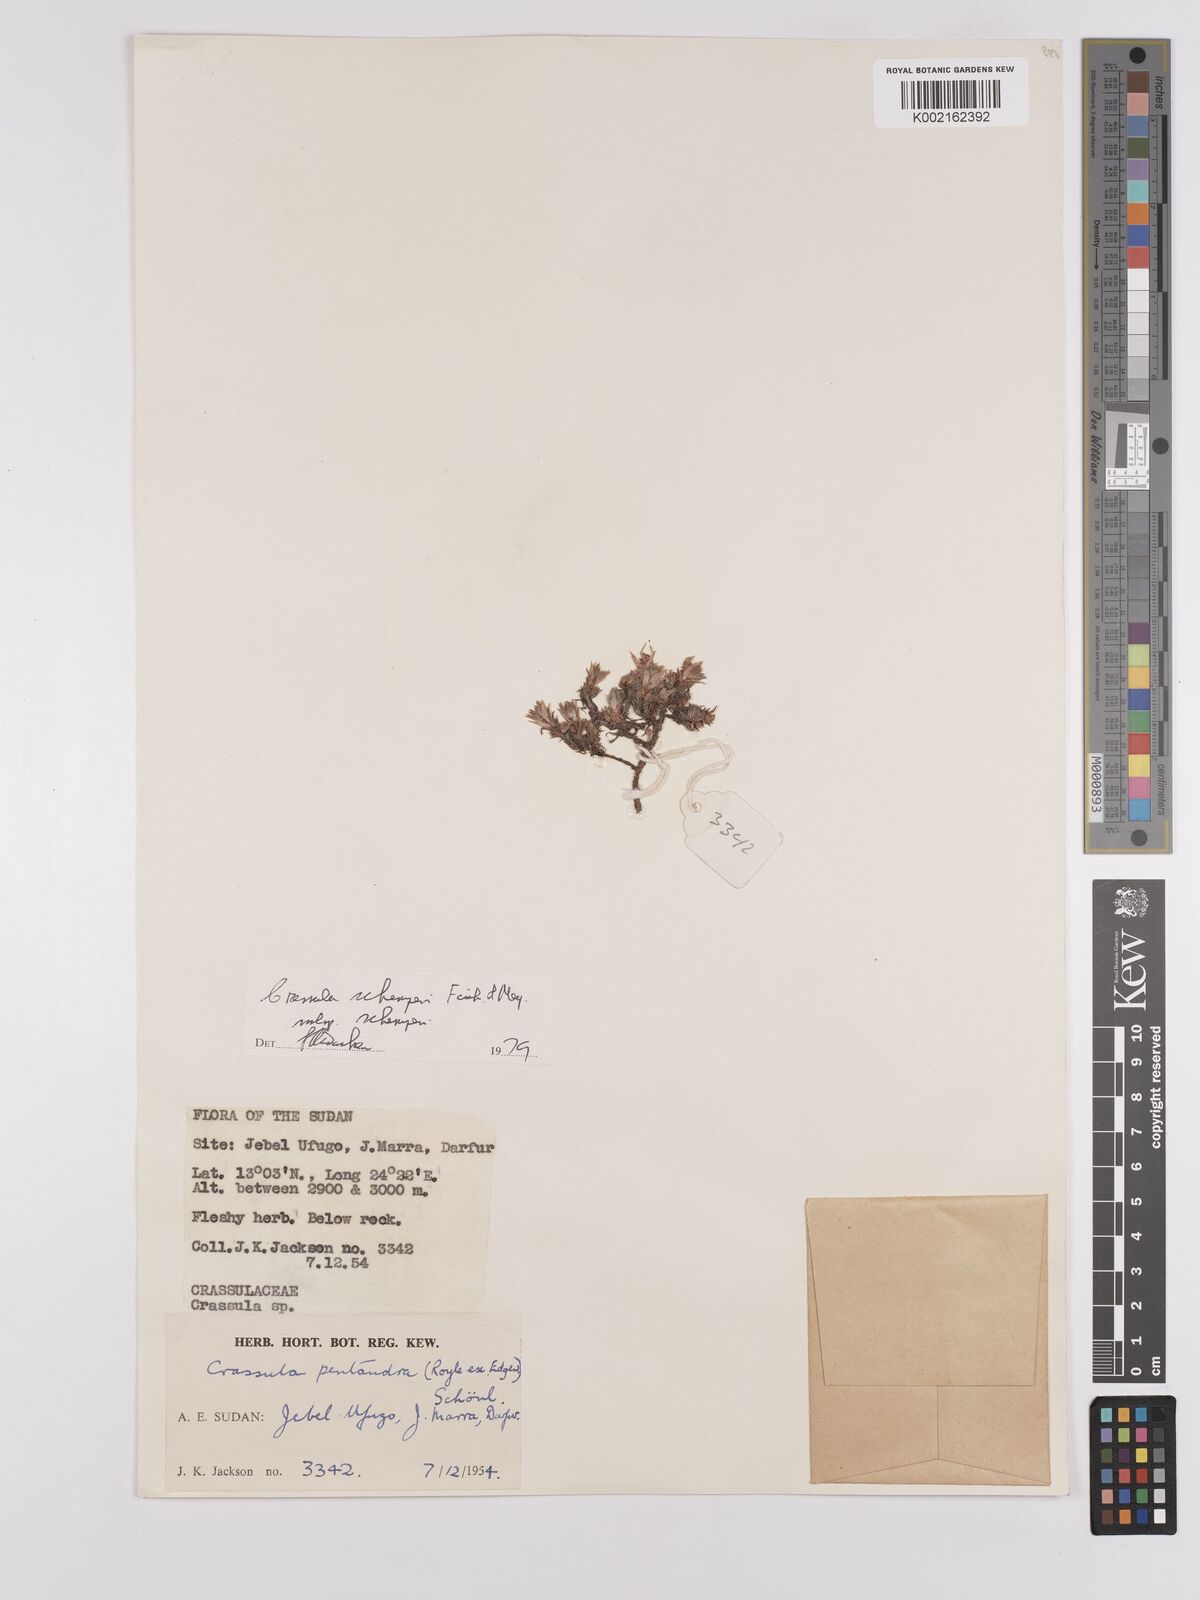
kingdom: Plantae
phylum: Tracheophyta
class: Magnoliopsida
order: Saxifragales
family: Crassulaceae
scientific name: Crassulaceae
